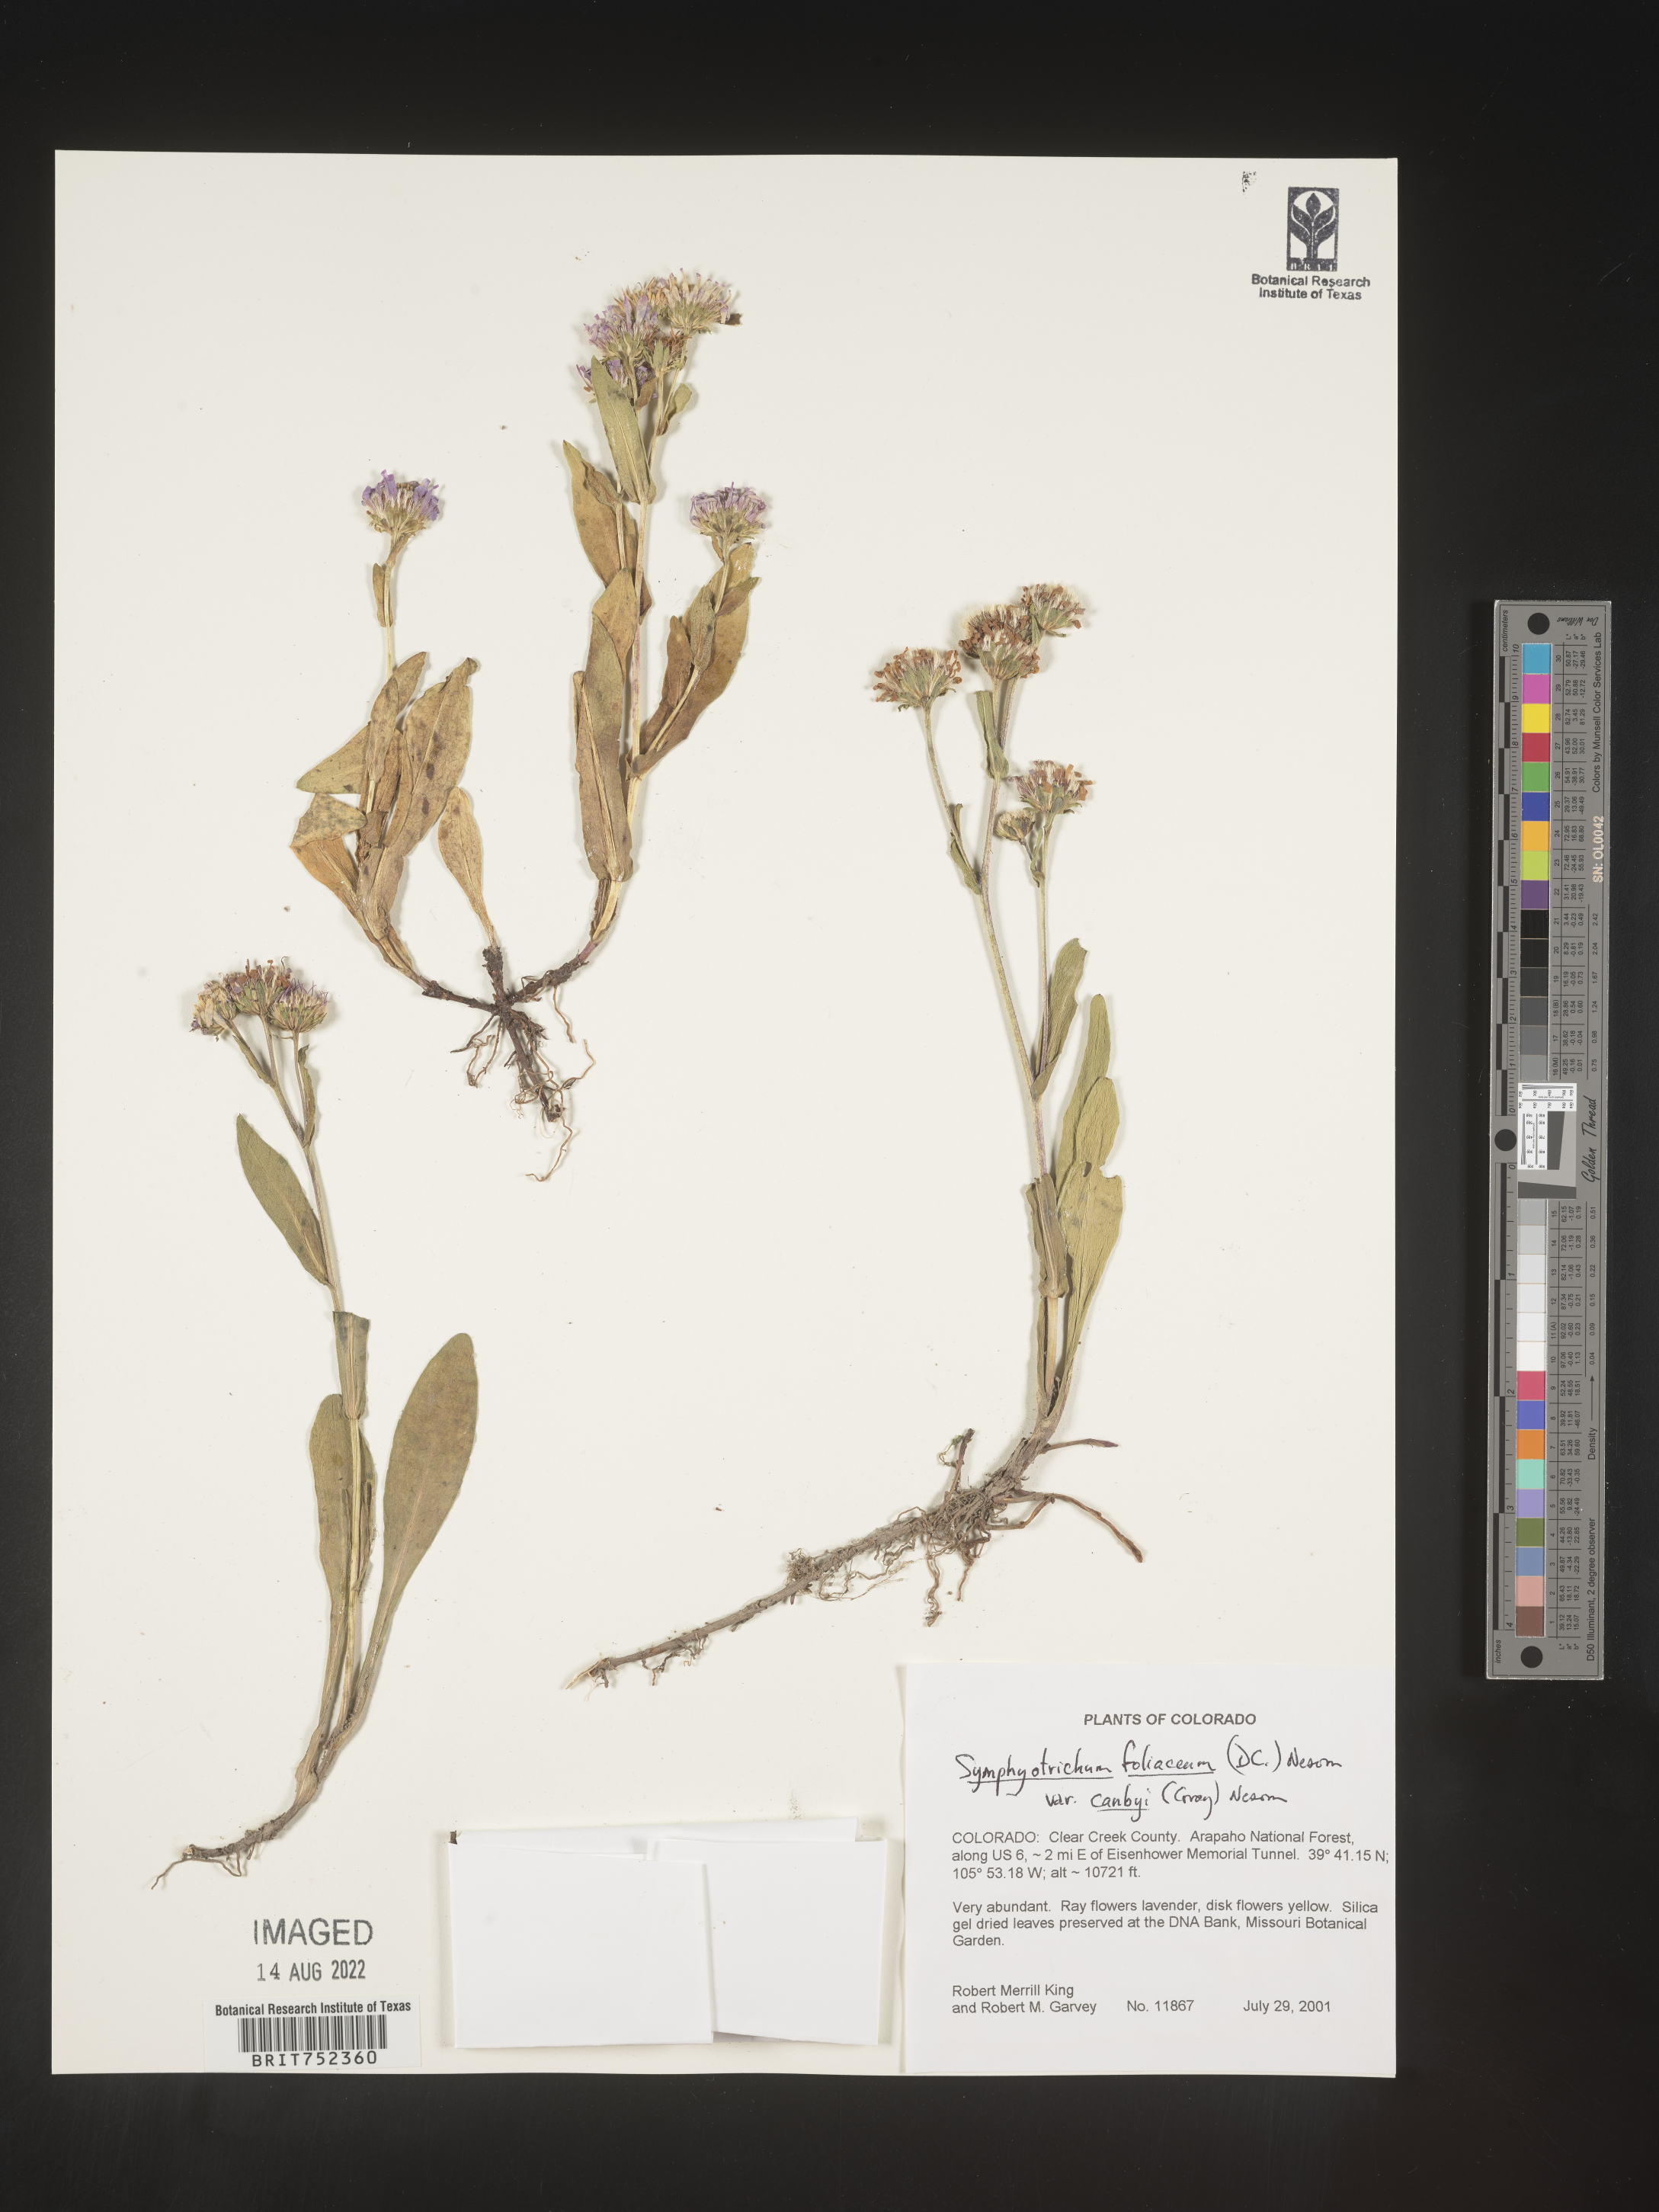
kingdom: Plantae
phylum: Tracheophyta
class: Magnoliopsida
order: Asterales
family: Asteraceae
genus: Symphyotrichum
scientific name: Symphyotrichum foliaceum
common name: Leafy aster
